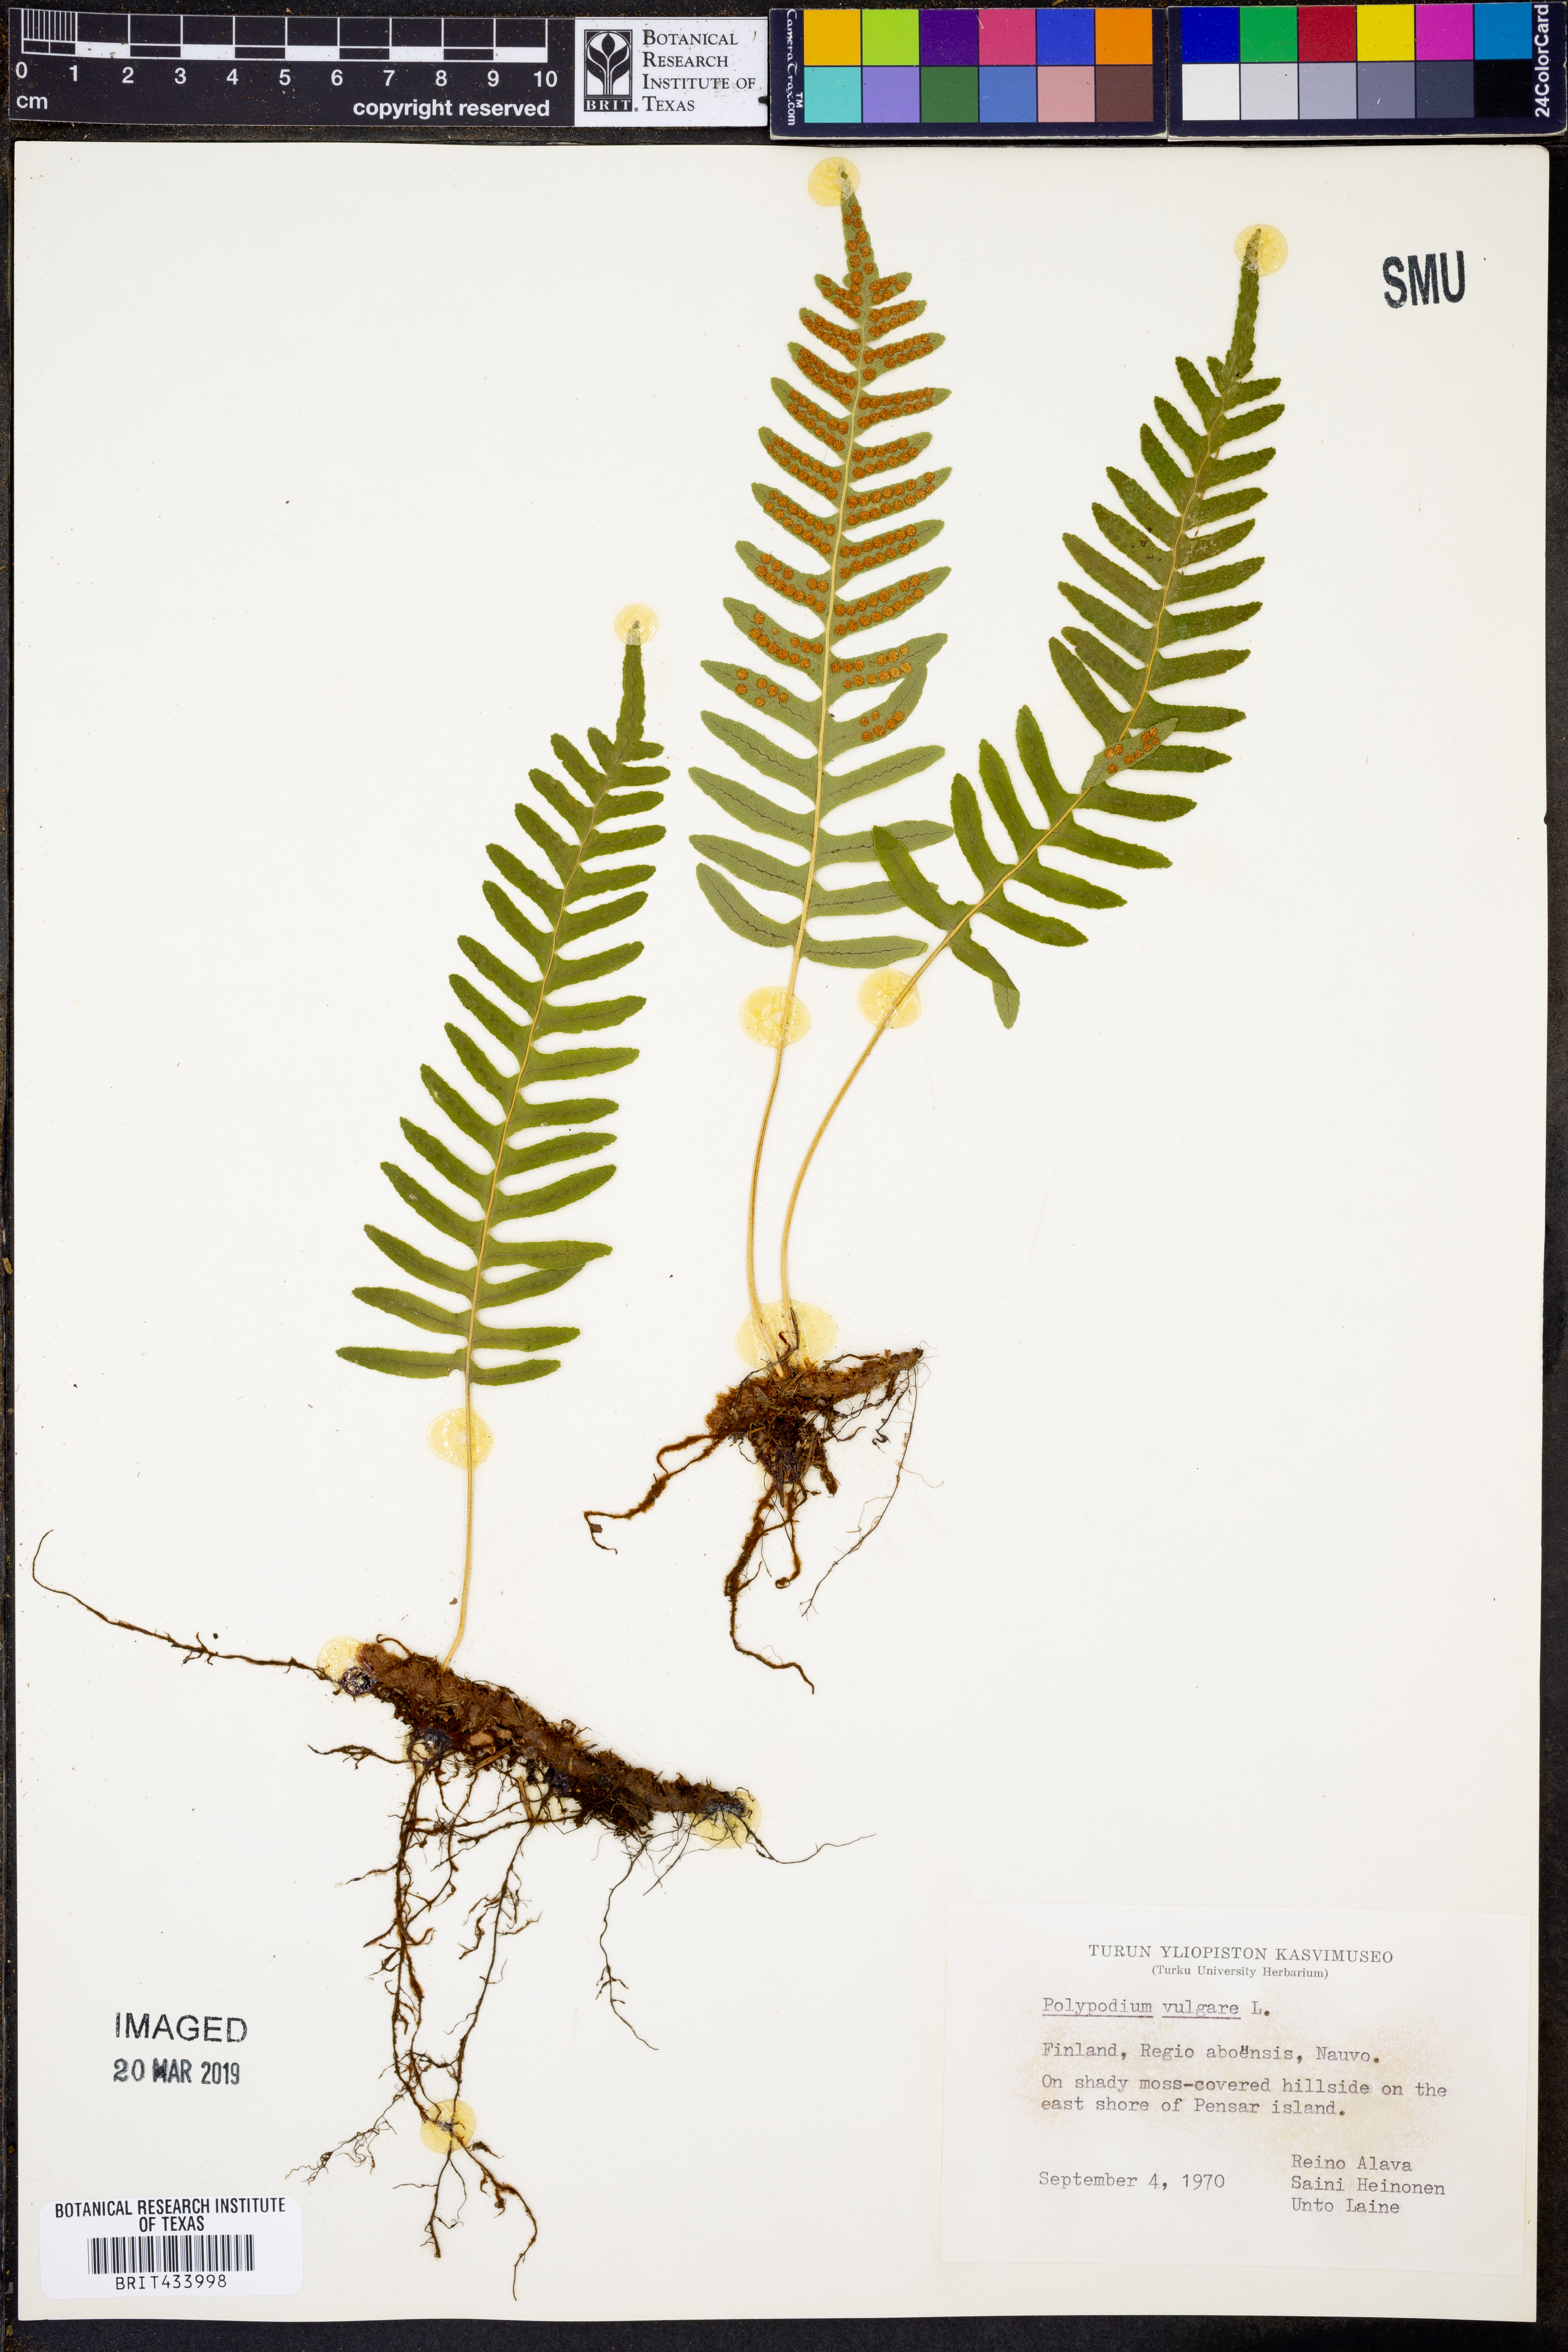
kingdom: Plantae
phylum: Tracheophyta
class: Polypodiopsida
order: Polypodiales
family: Polypodiaceae
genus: Polypodium
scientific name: Polypodium vulgare
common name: Common polypody
